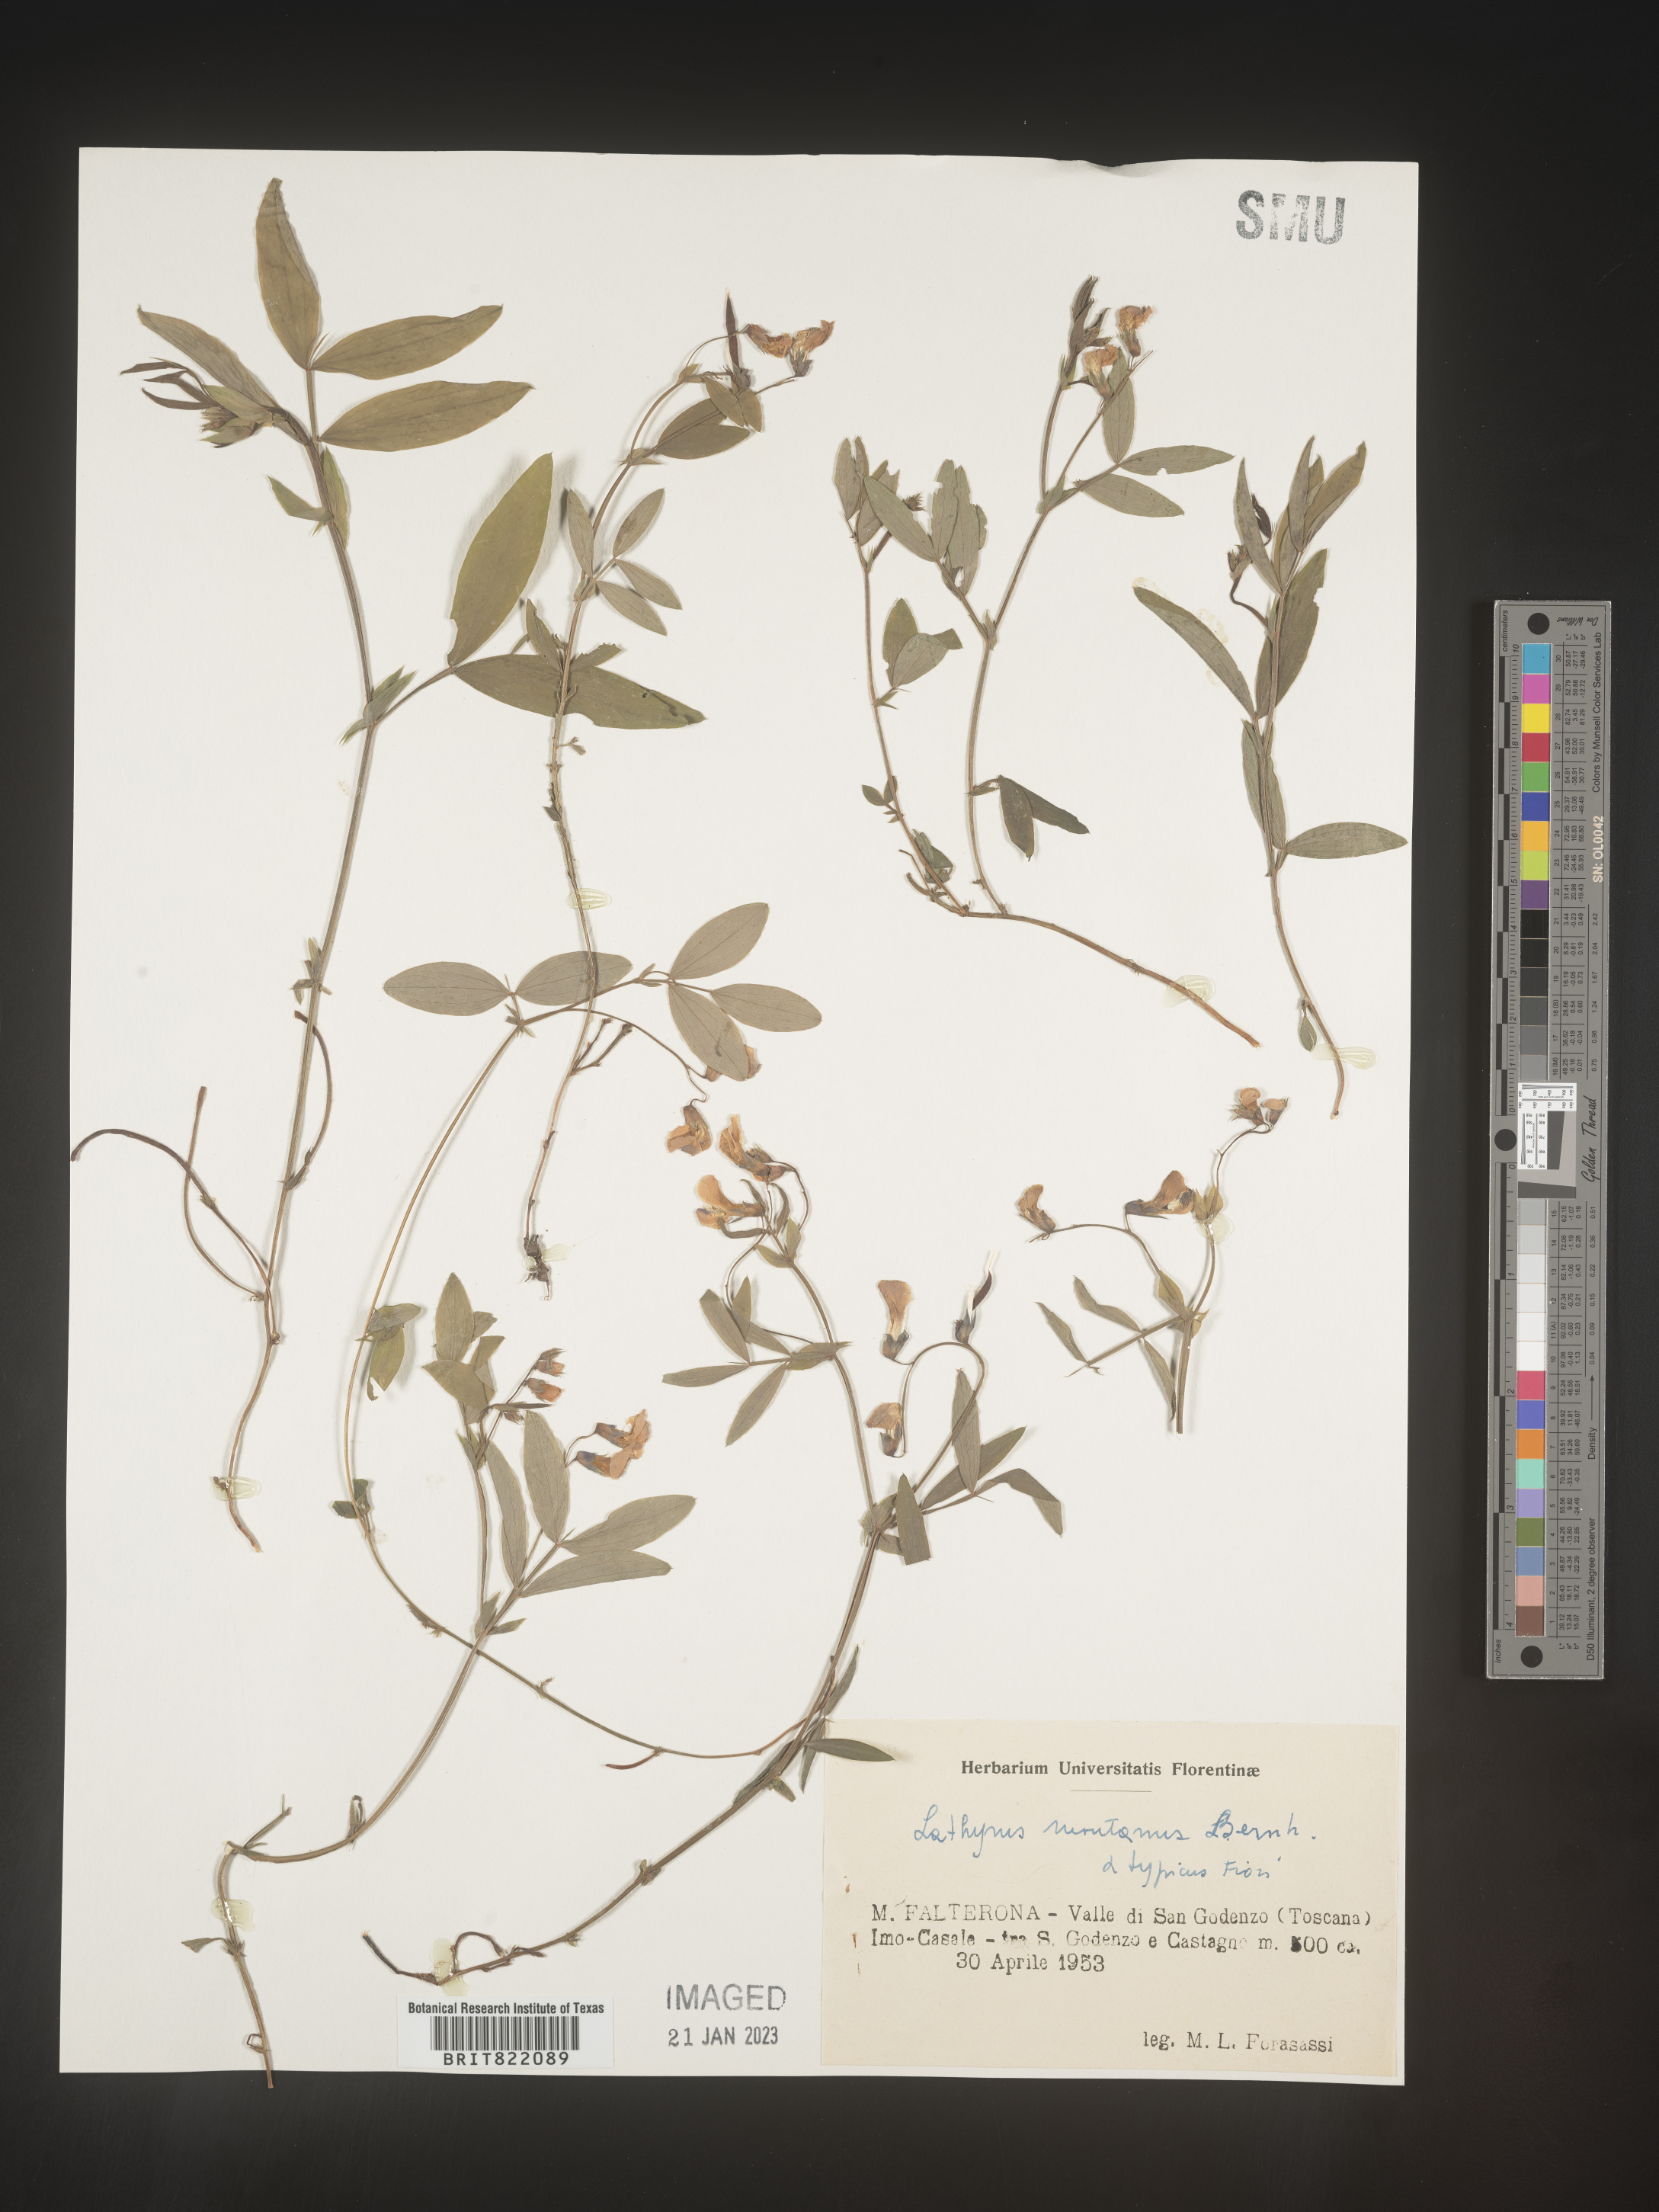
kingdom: Plantae
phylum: Tracheophyta
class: Magnoliopsida
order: Fabales
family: Fabaceae
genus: Lathyrus
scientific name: Lathyrus
